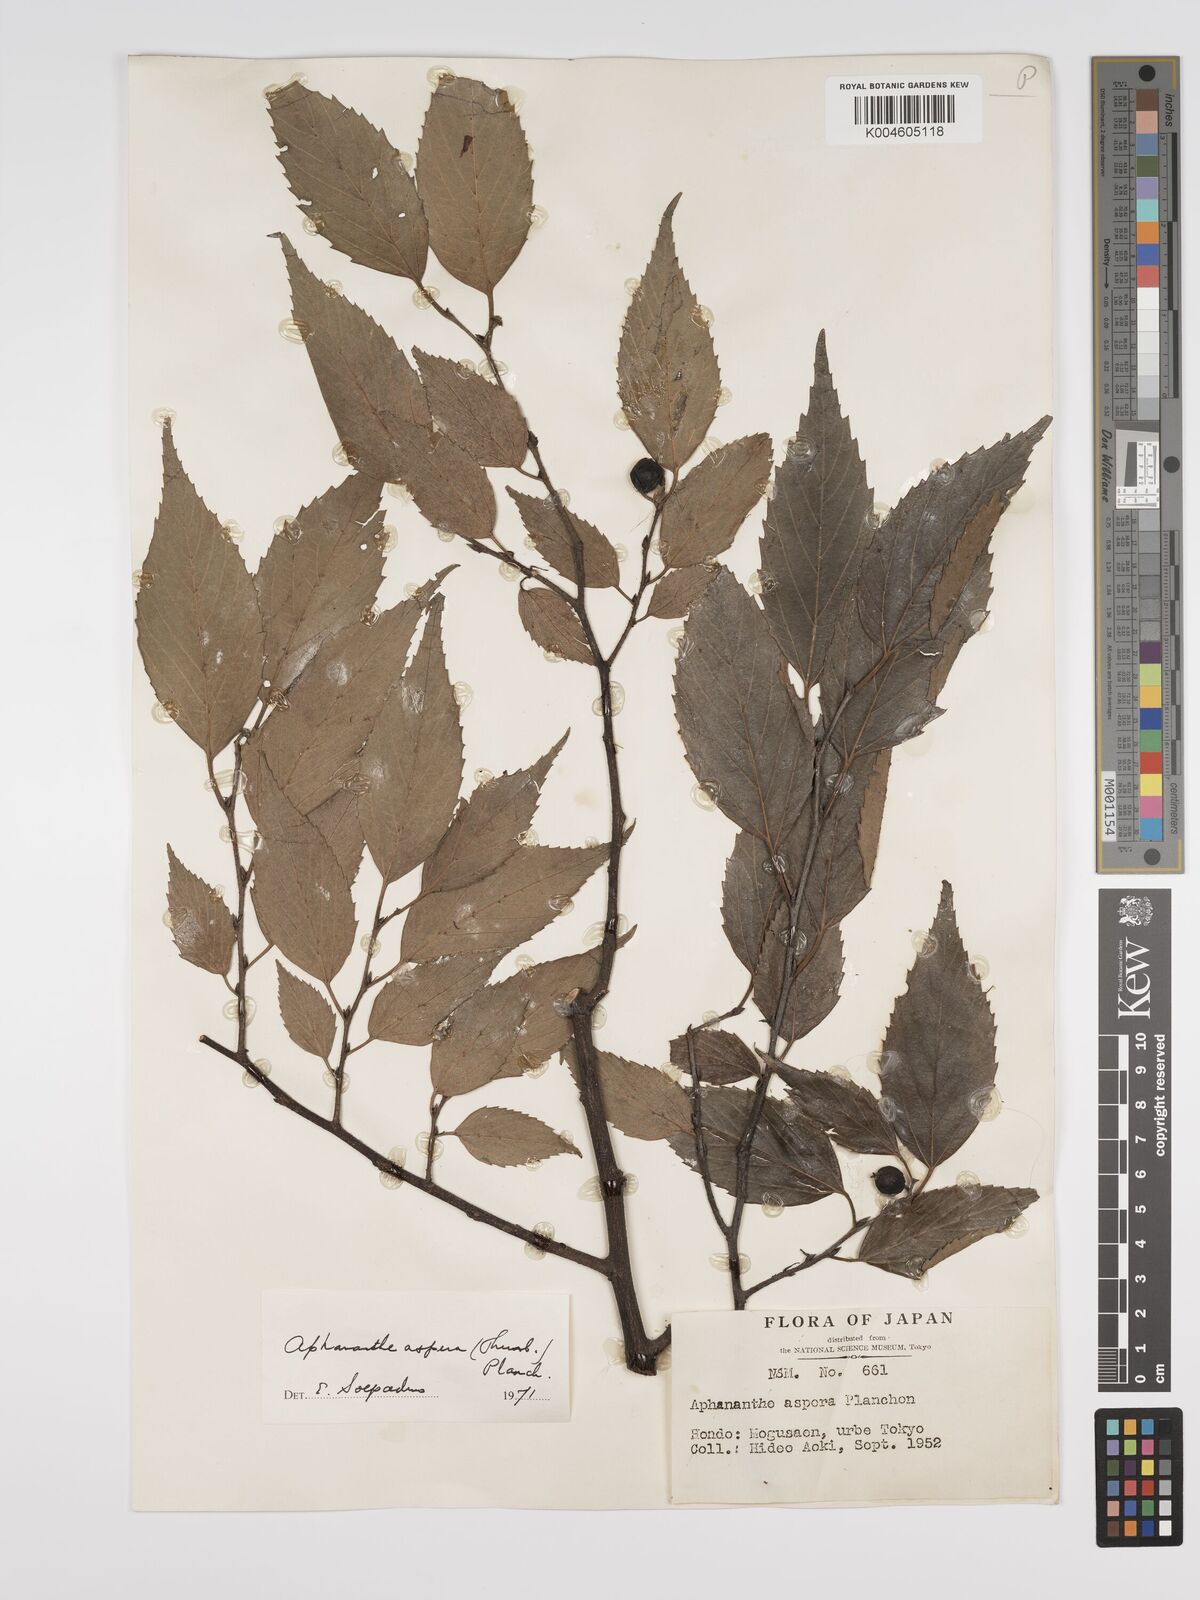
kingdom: Plantae
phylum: Tracheophyta
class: Magnoliopsida
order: Rosales
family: Cannabaceae
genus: Aphananthe
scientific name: Aphananthe aspera
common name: Mukutree
